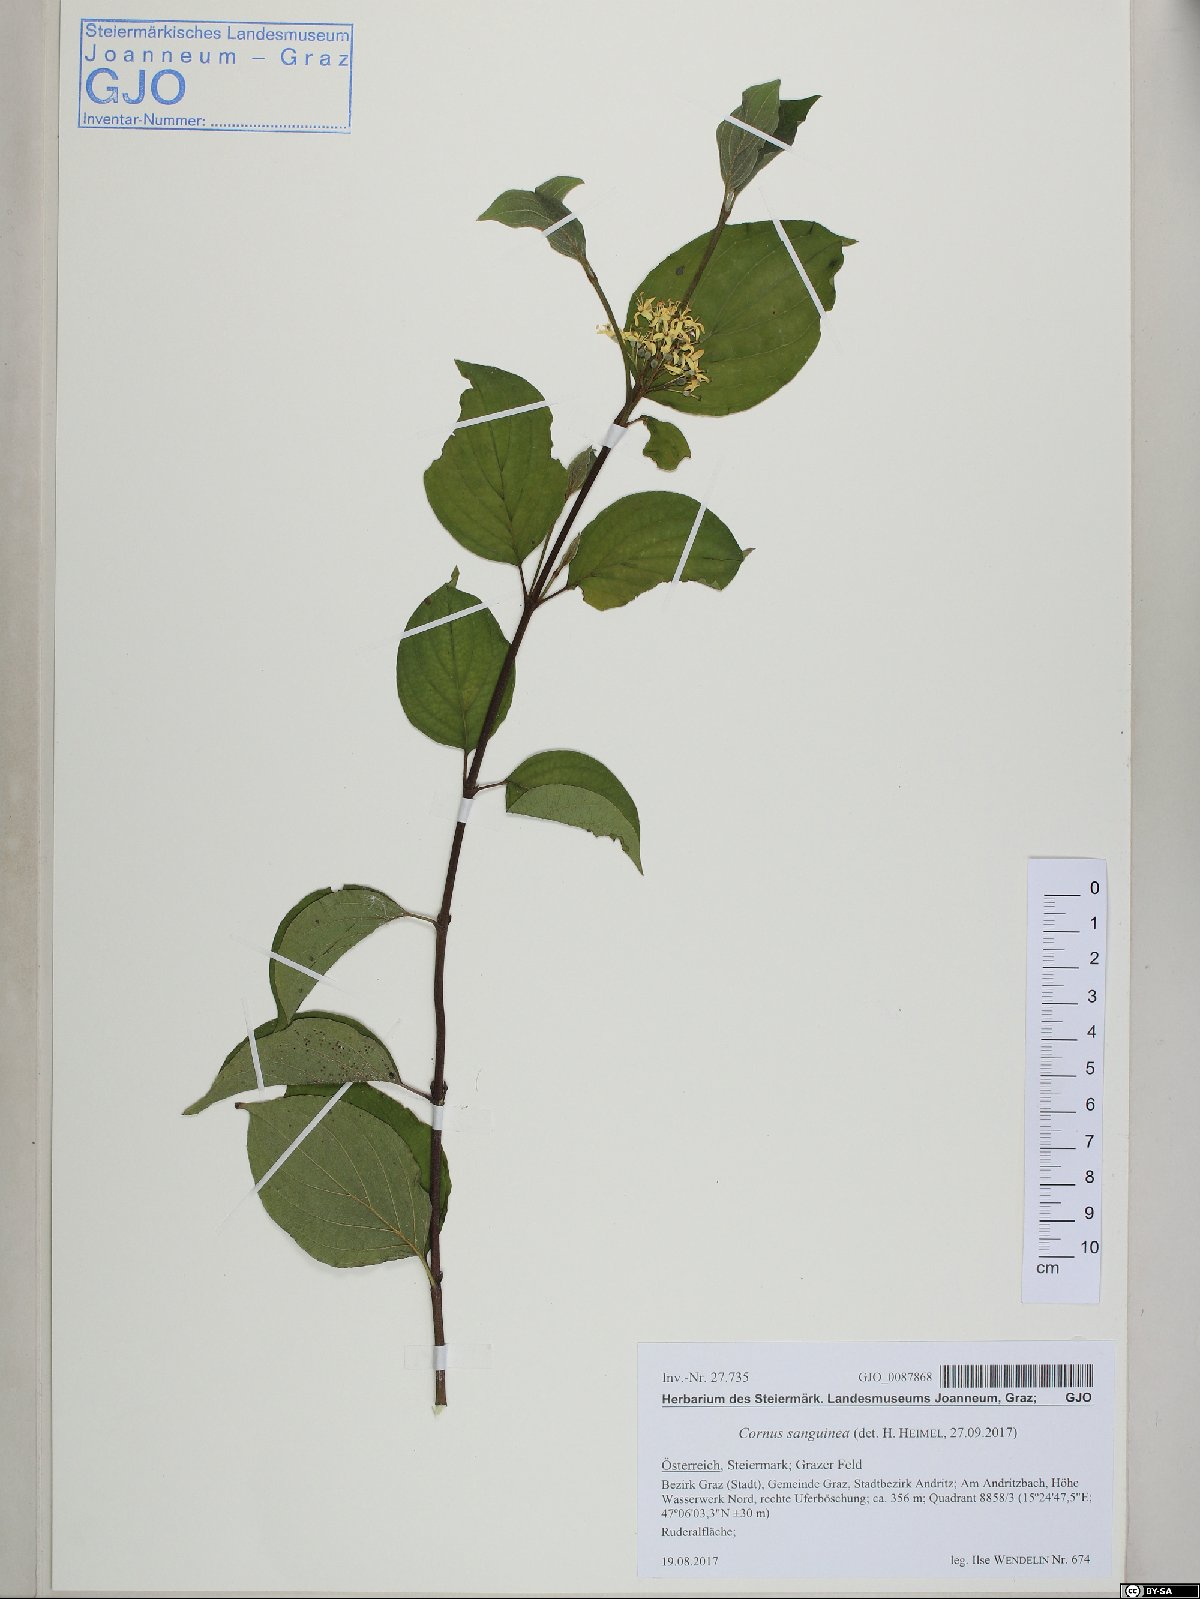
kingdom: Plantae
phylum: Tracheophyta
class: Magnoliopsida
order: Cornales
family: Cornaceae
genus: Cornus
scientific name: Cornus sanguinea
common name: Dogwood
